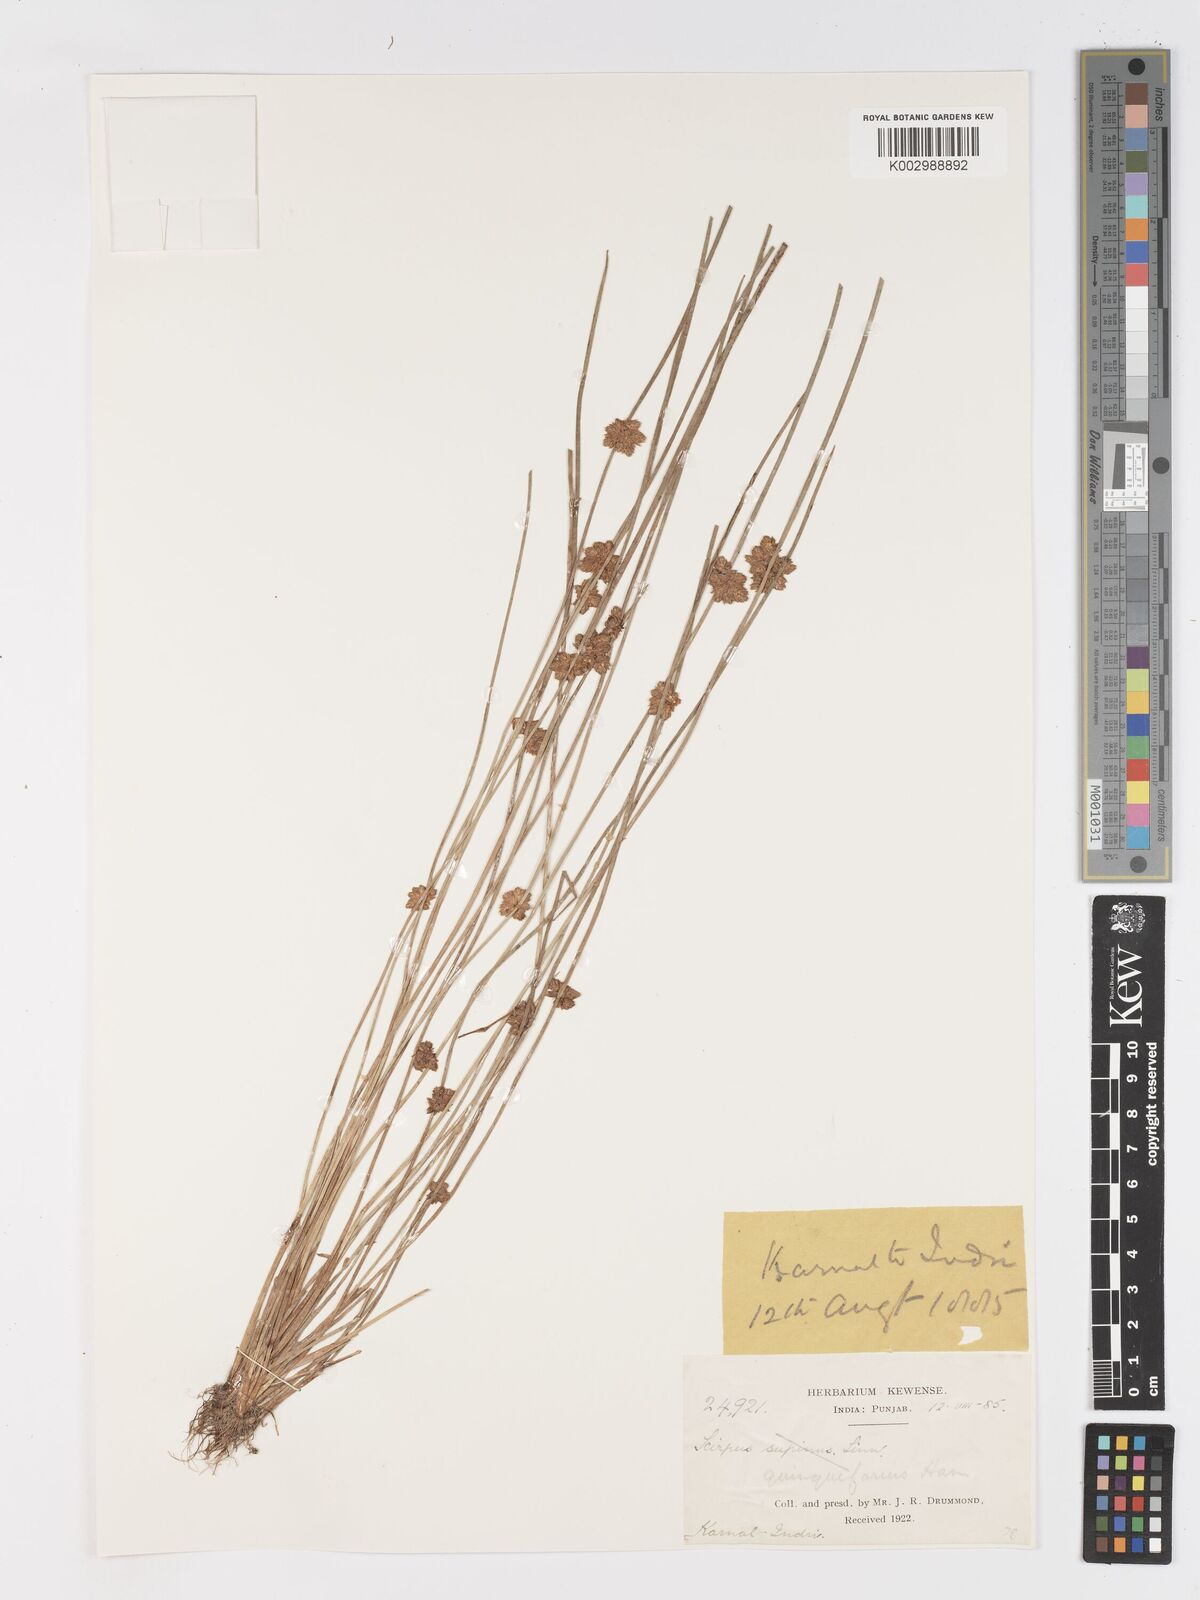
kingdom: Plantae
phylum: Tracheophyta
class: Liliopsida
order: Poales
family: Cyperaceae
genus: Schoenoplectiella
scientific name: Schoenoplectiella roylei
